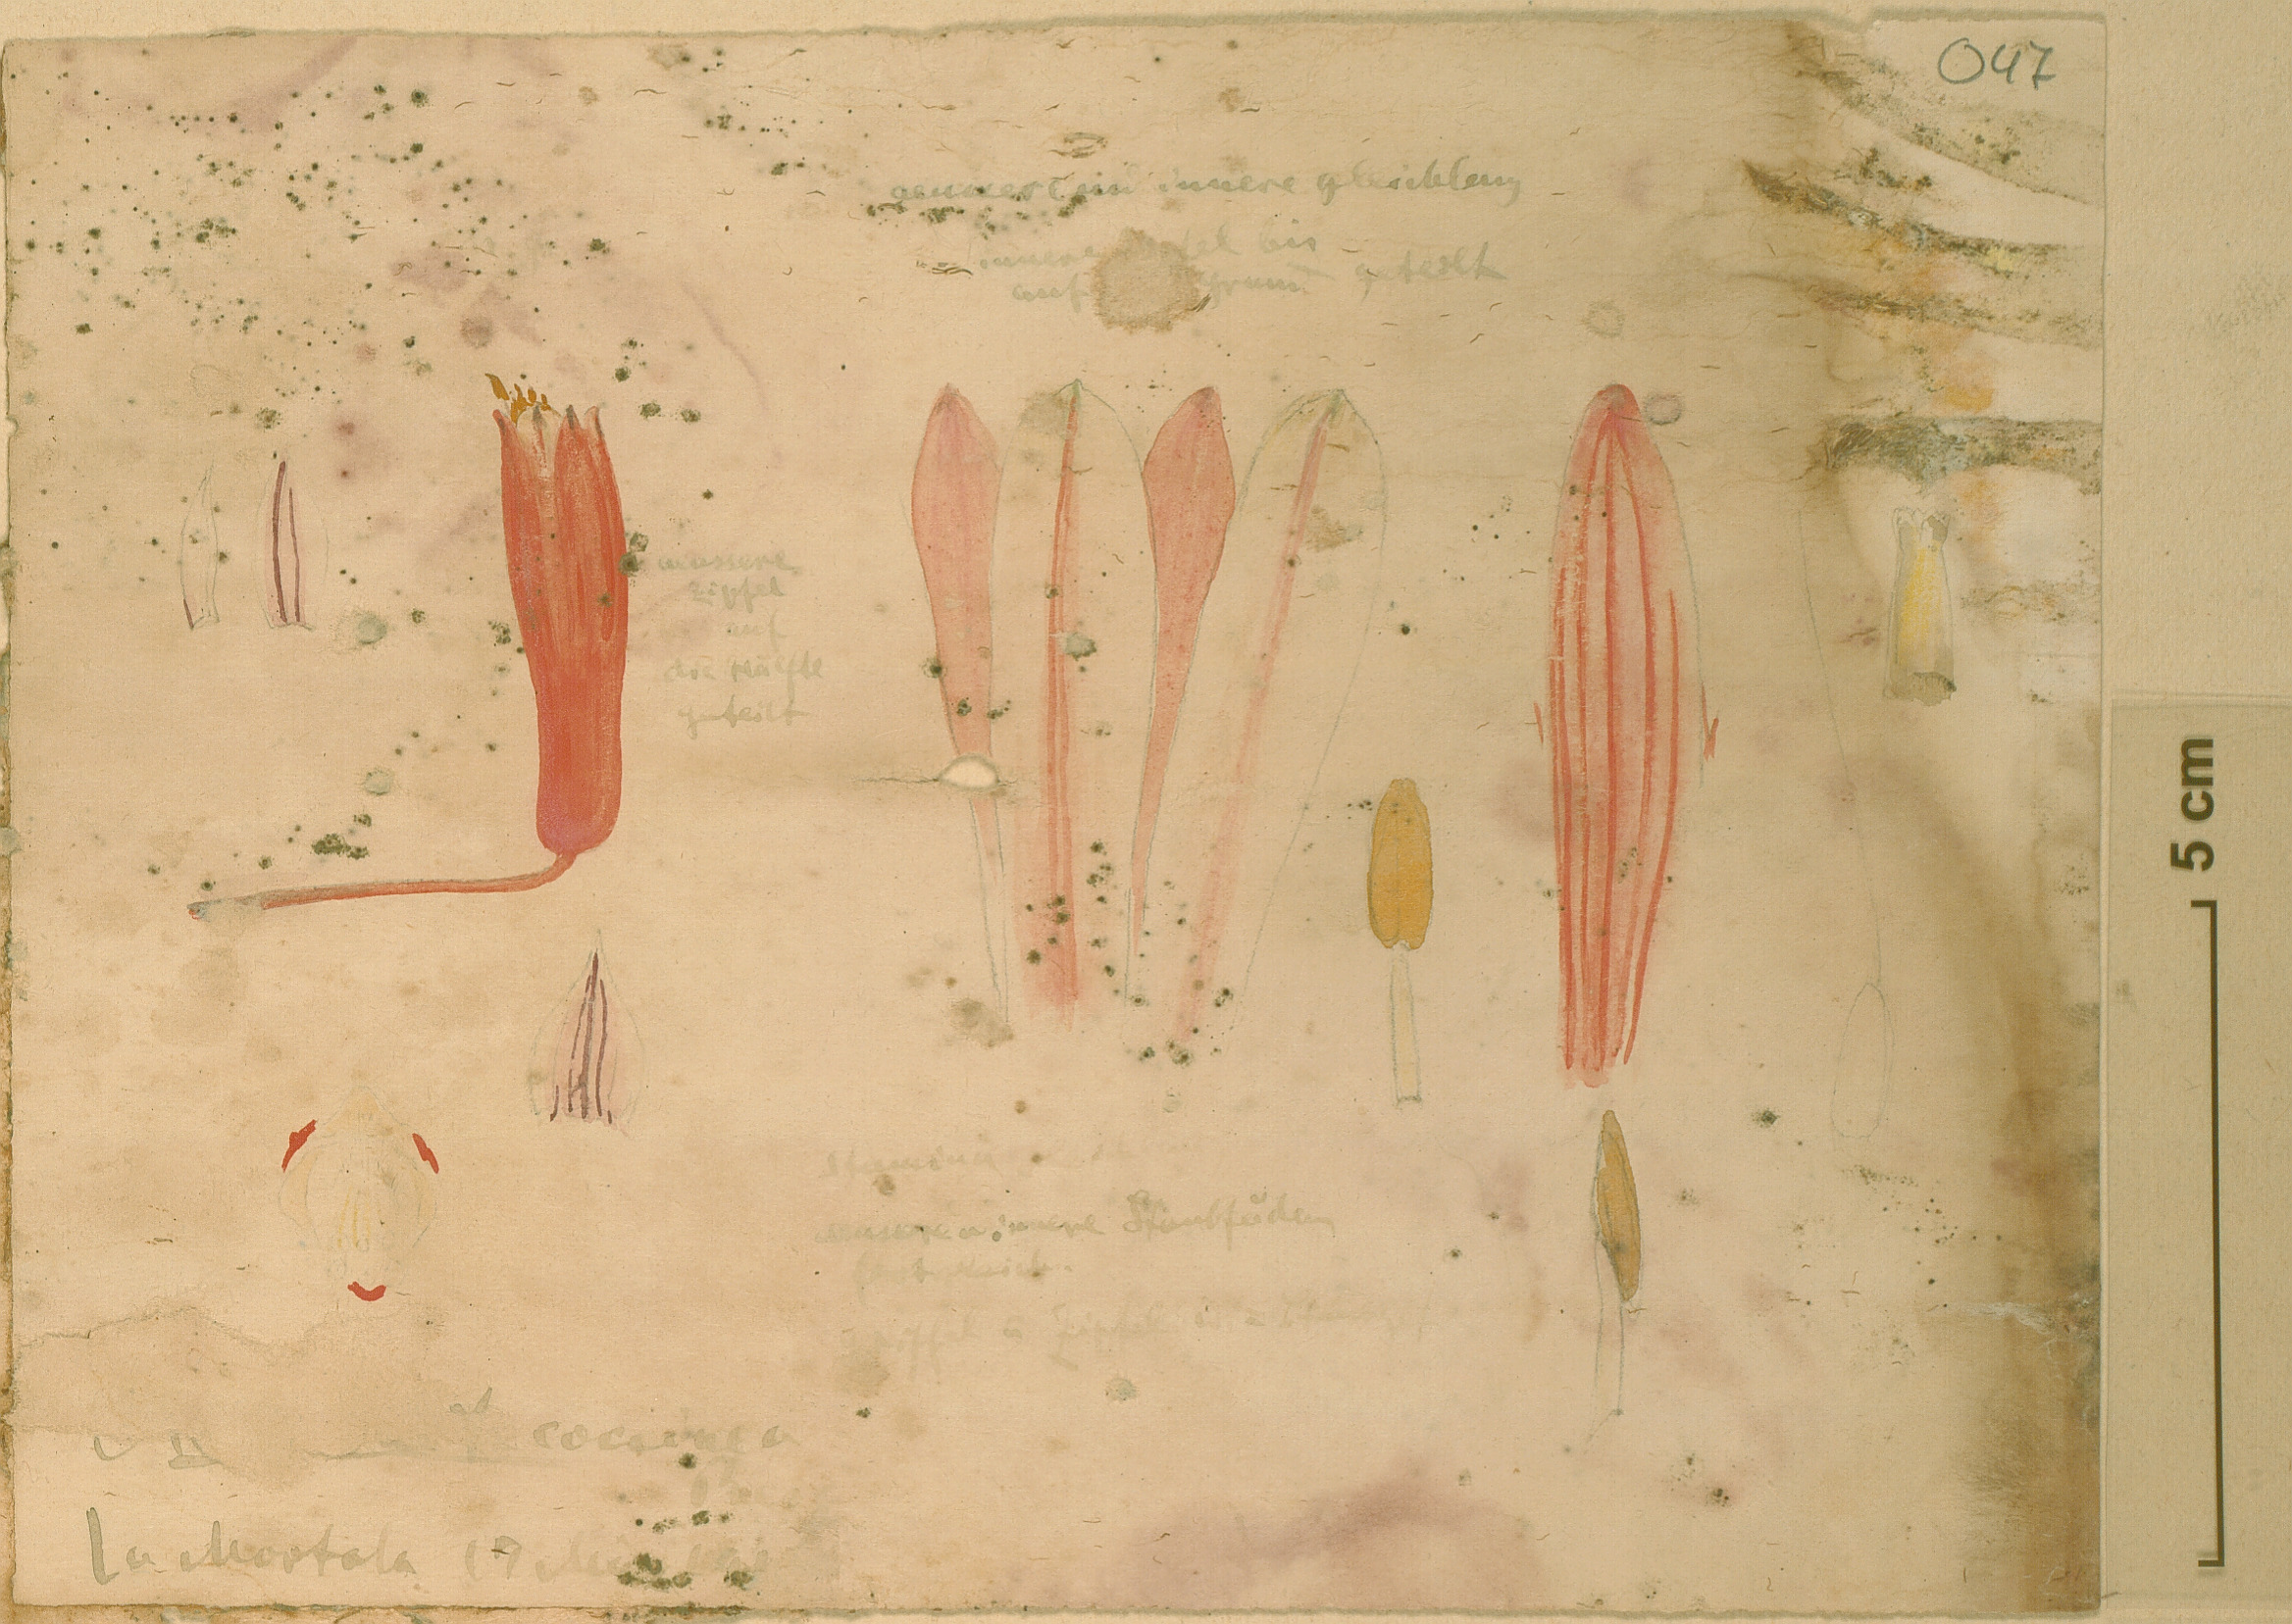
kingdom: Plantae
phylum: Tracheophyta
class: Liliopsida
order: Asparagales
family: Asphodelaceae
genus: Aloe
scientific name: Aloe
